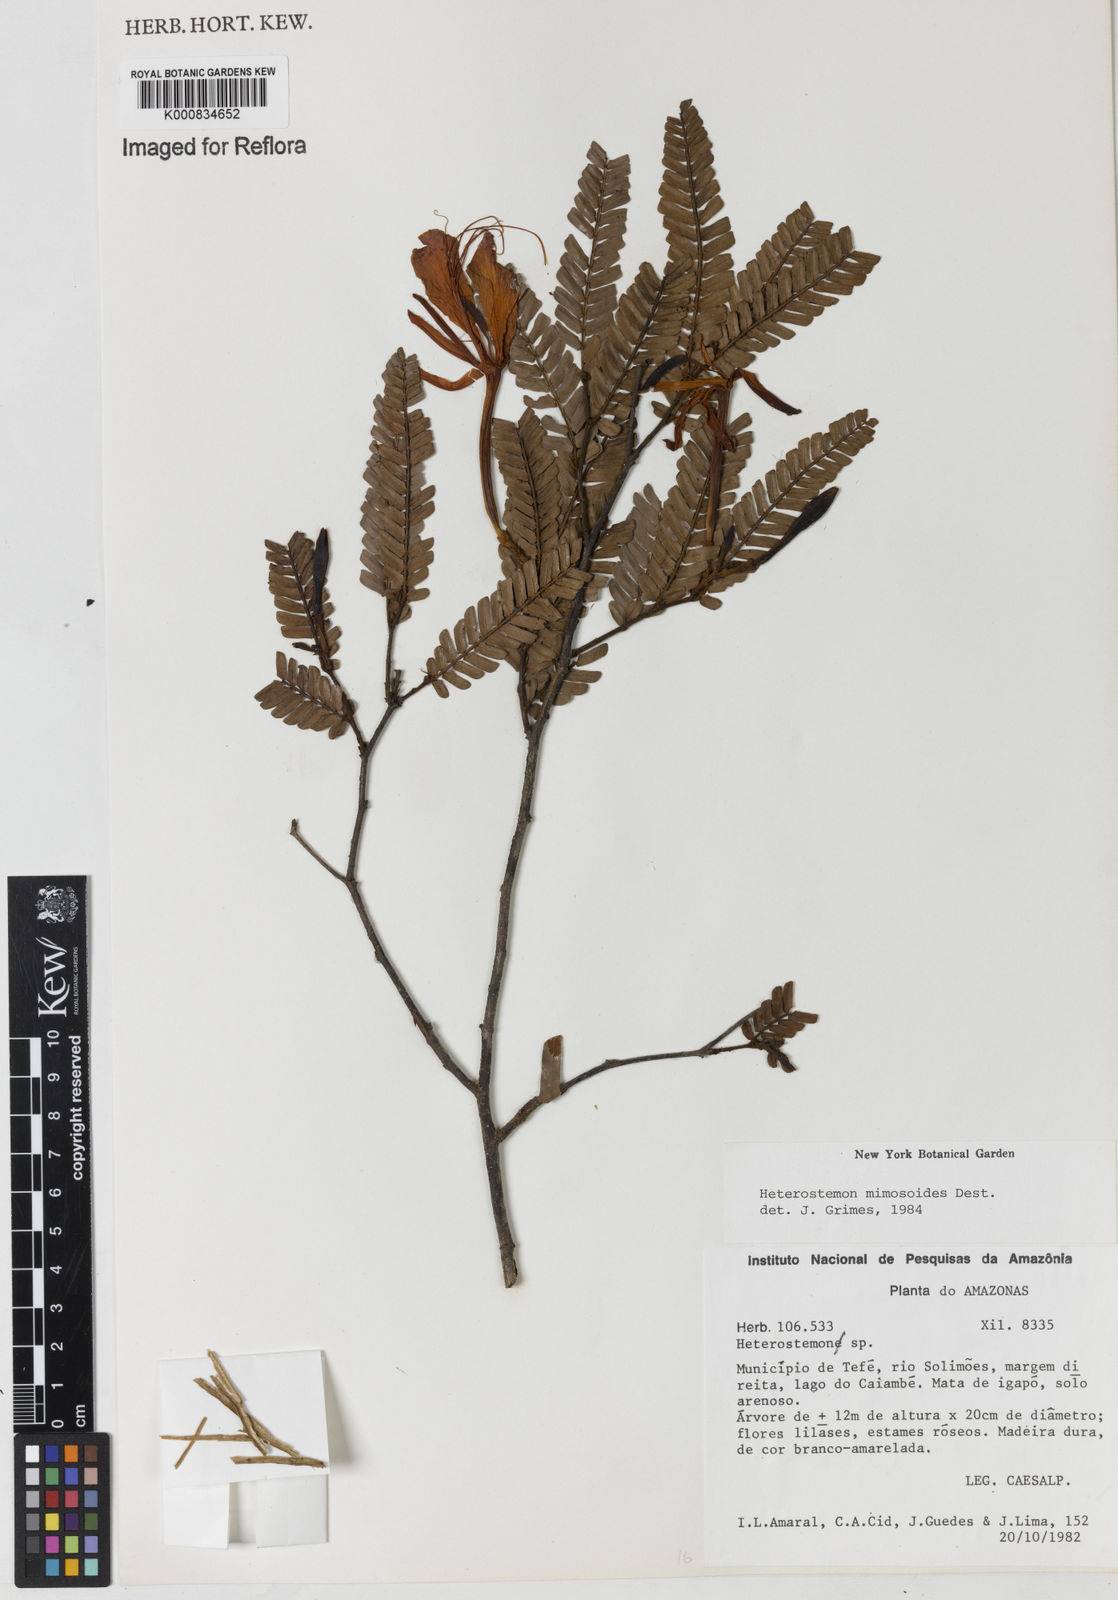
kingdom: Plantae
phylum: Tracheophyta
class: Magnoliopsida
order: Fabales
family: Fabaceae
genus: Heterostemon
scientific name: Heterostemon mimosoides
